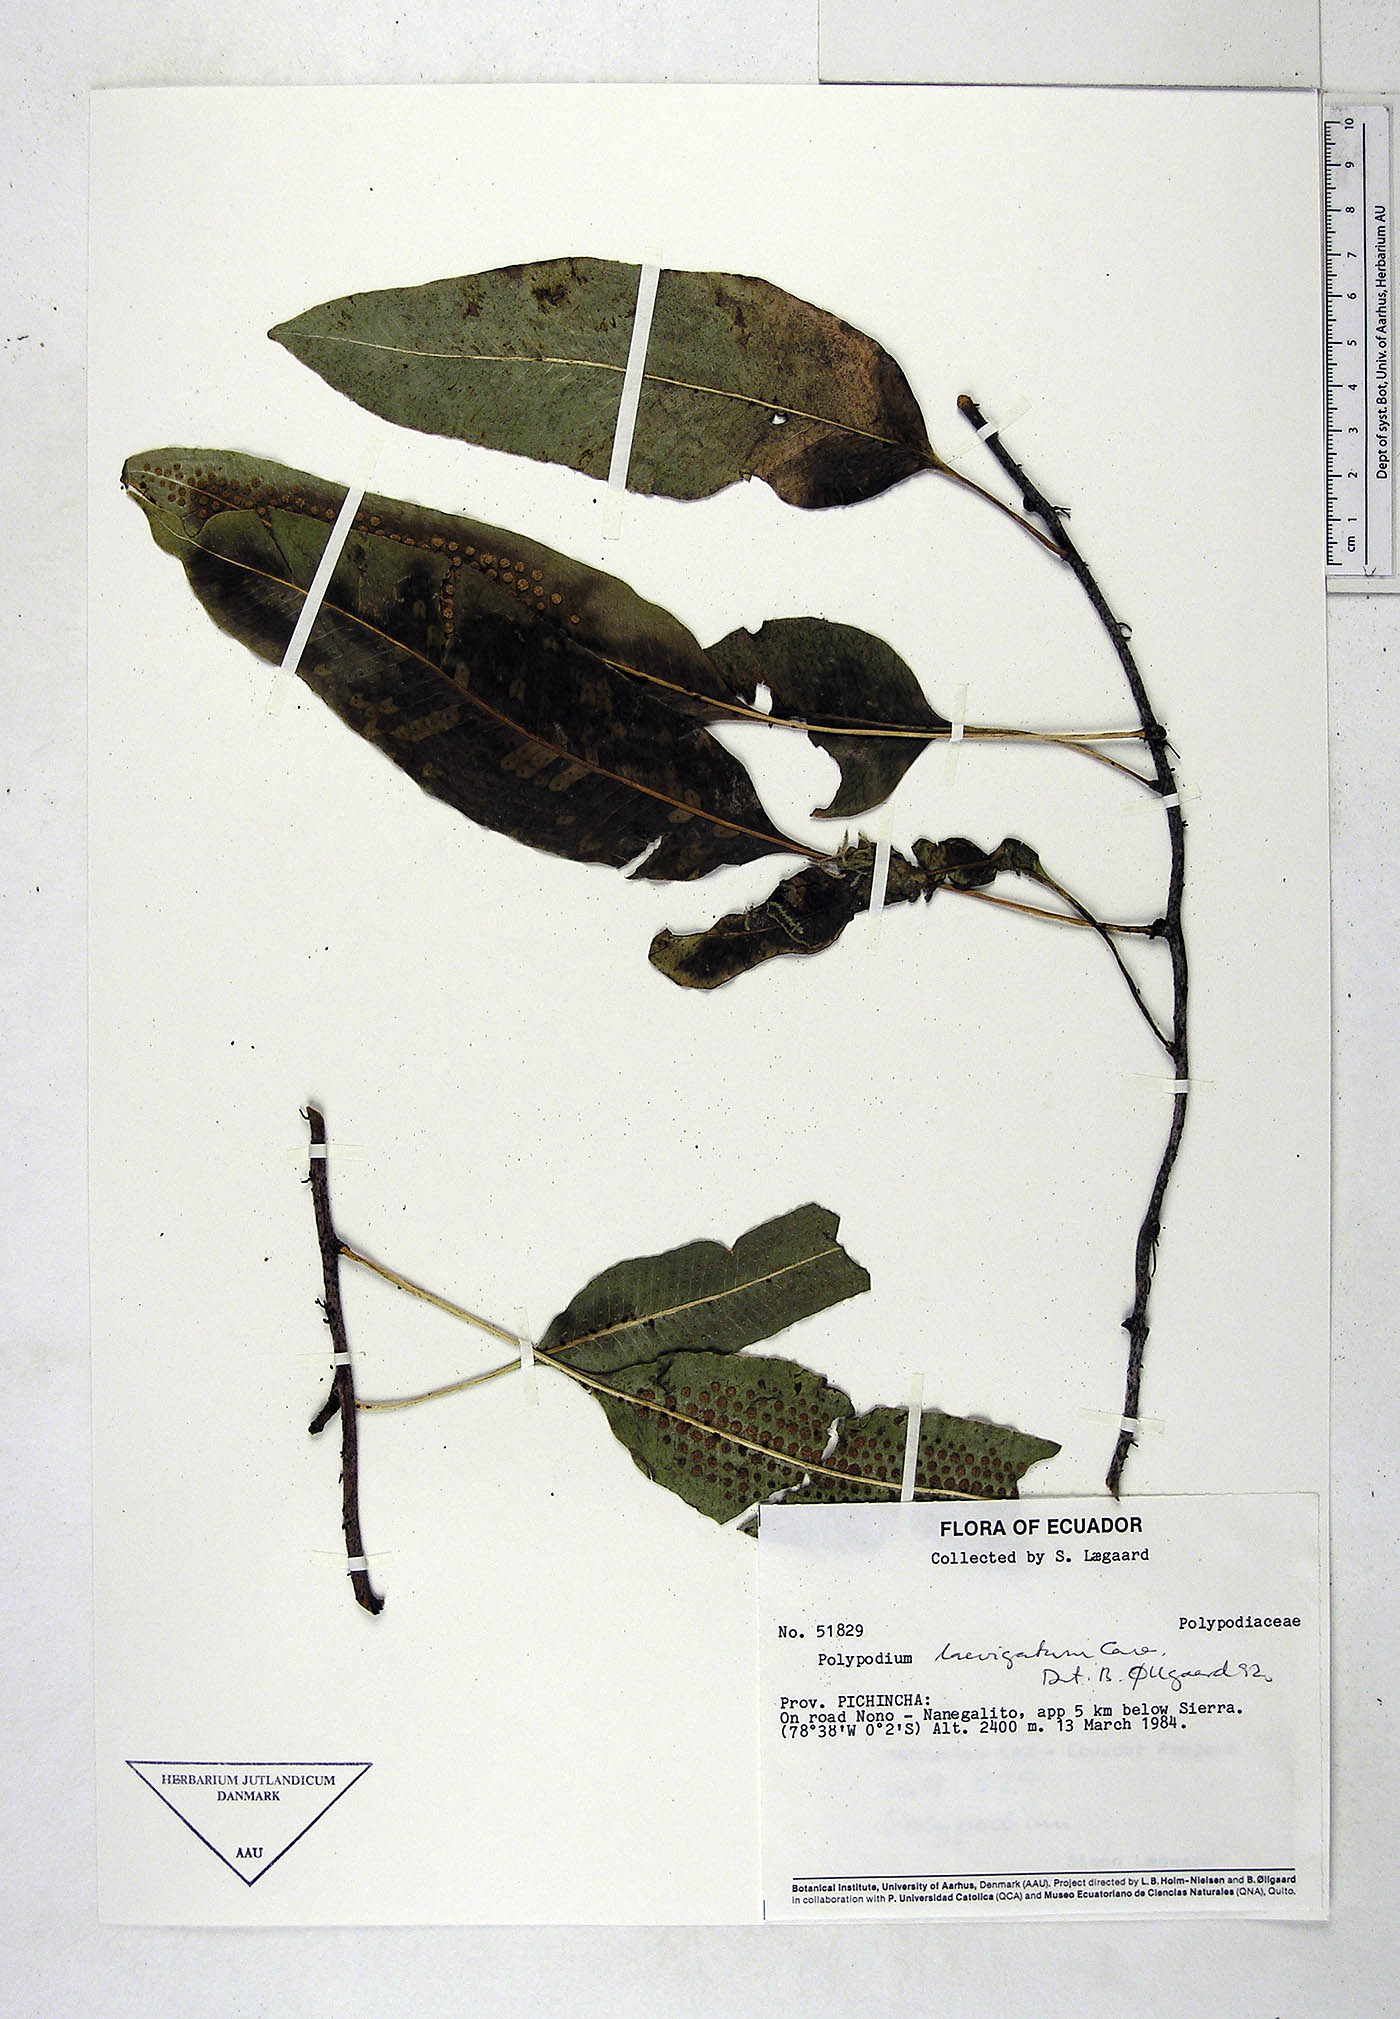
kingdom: Plantae
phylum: Tracheophyta
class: Polypodiopsida
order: Polypodiales
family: Polypodiaceae
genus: Serpocaulon
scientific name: Serpocaulon laevigatum
